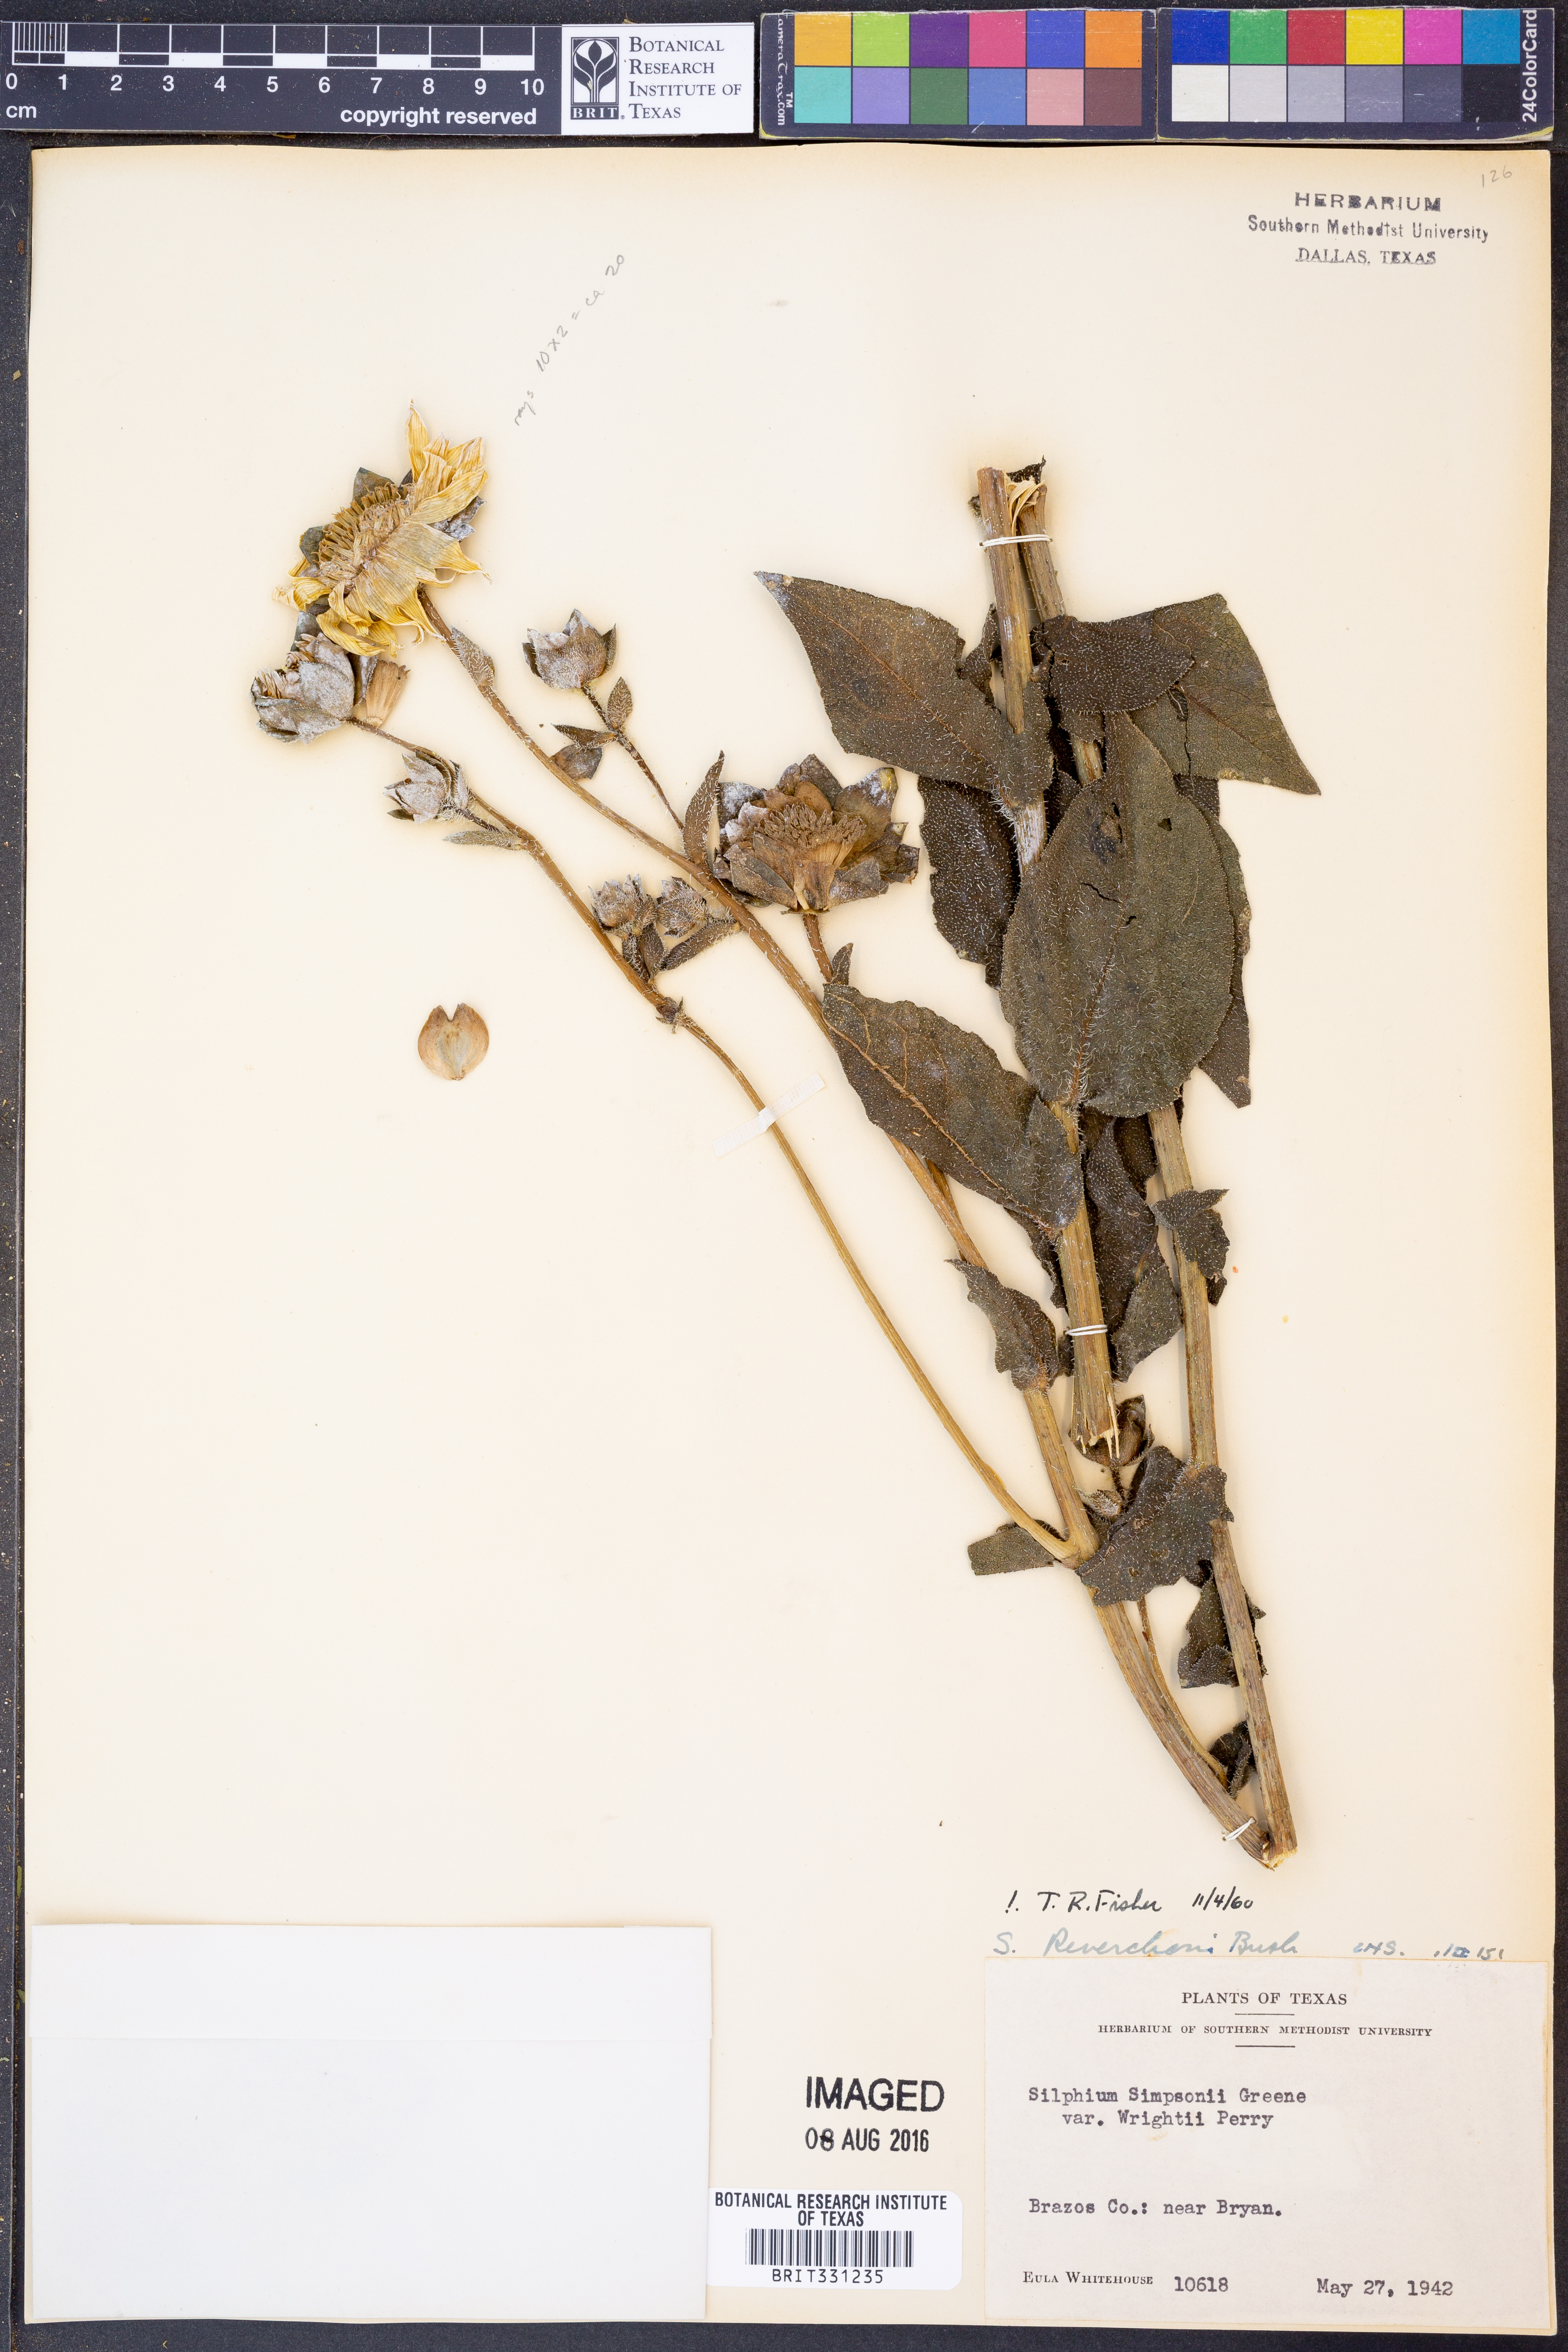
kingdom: Plantae
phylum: Tracheophyta
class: Magnoliopsida
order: Asterales
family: Asteraceae
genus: Silphium
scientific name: Silphium radula
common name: Roughleaf rosinweed
